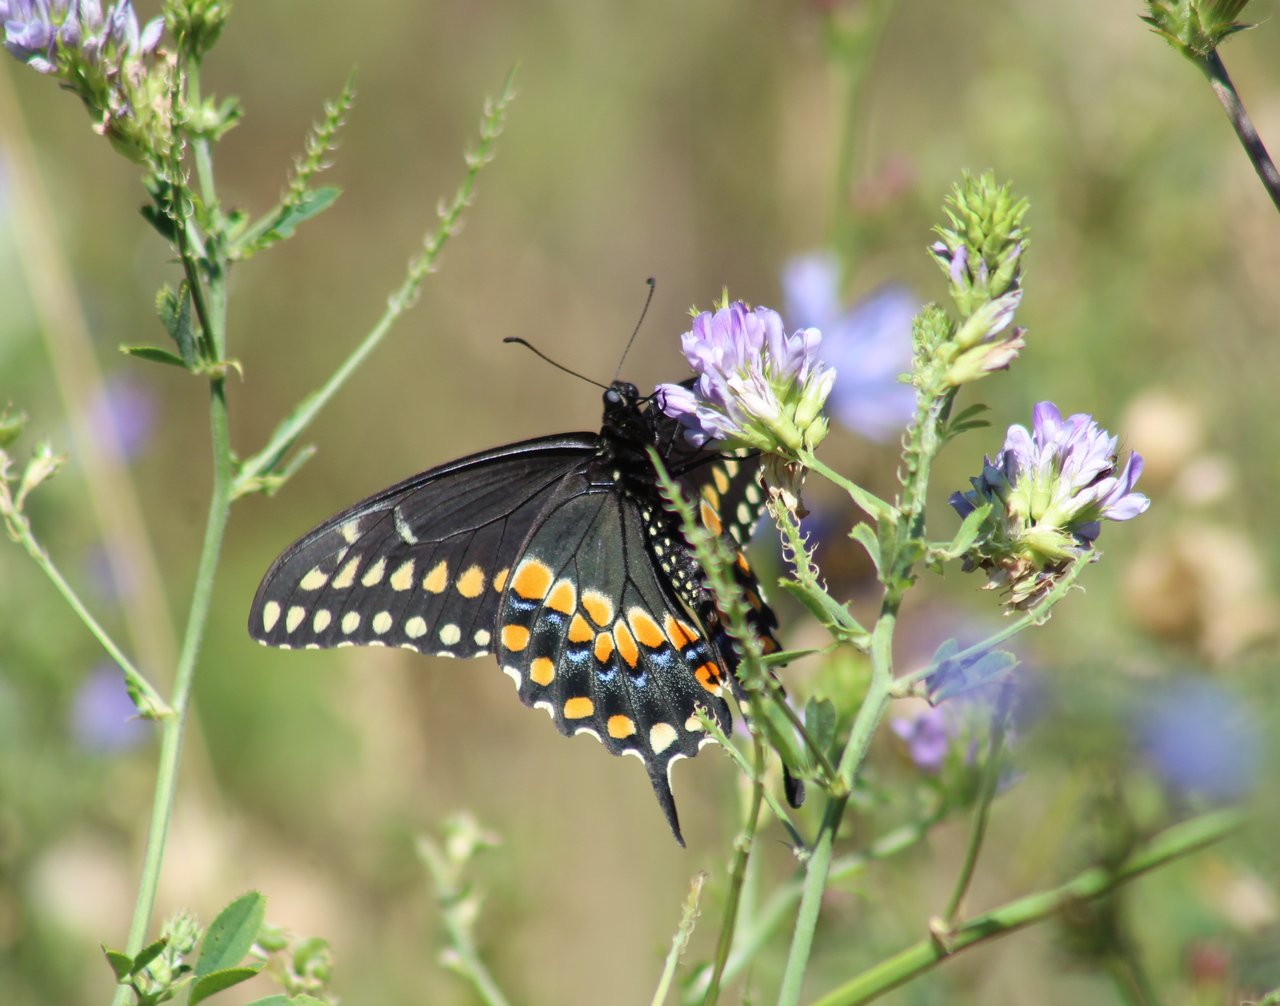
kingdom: Animalia
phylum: Arthropoda
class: Insecta
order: Lepidoptera
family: Papilionidae
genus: Papilio
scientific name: Papilio polyxenes
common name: Black Swallowtail
